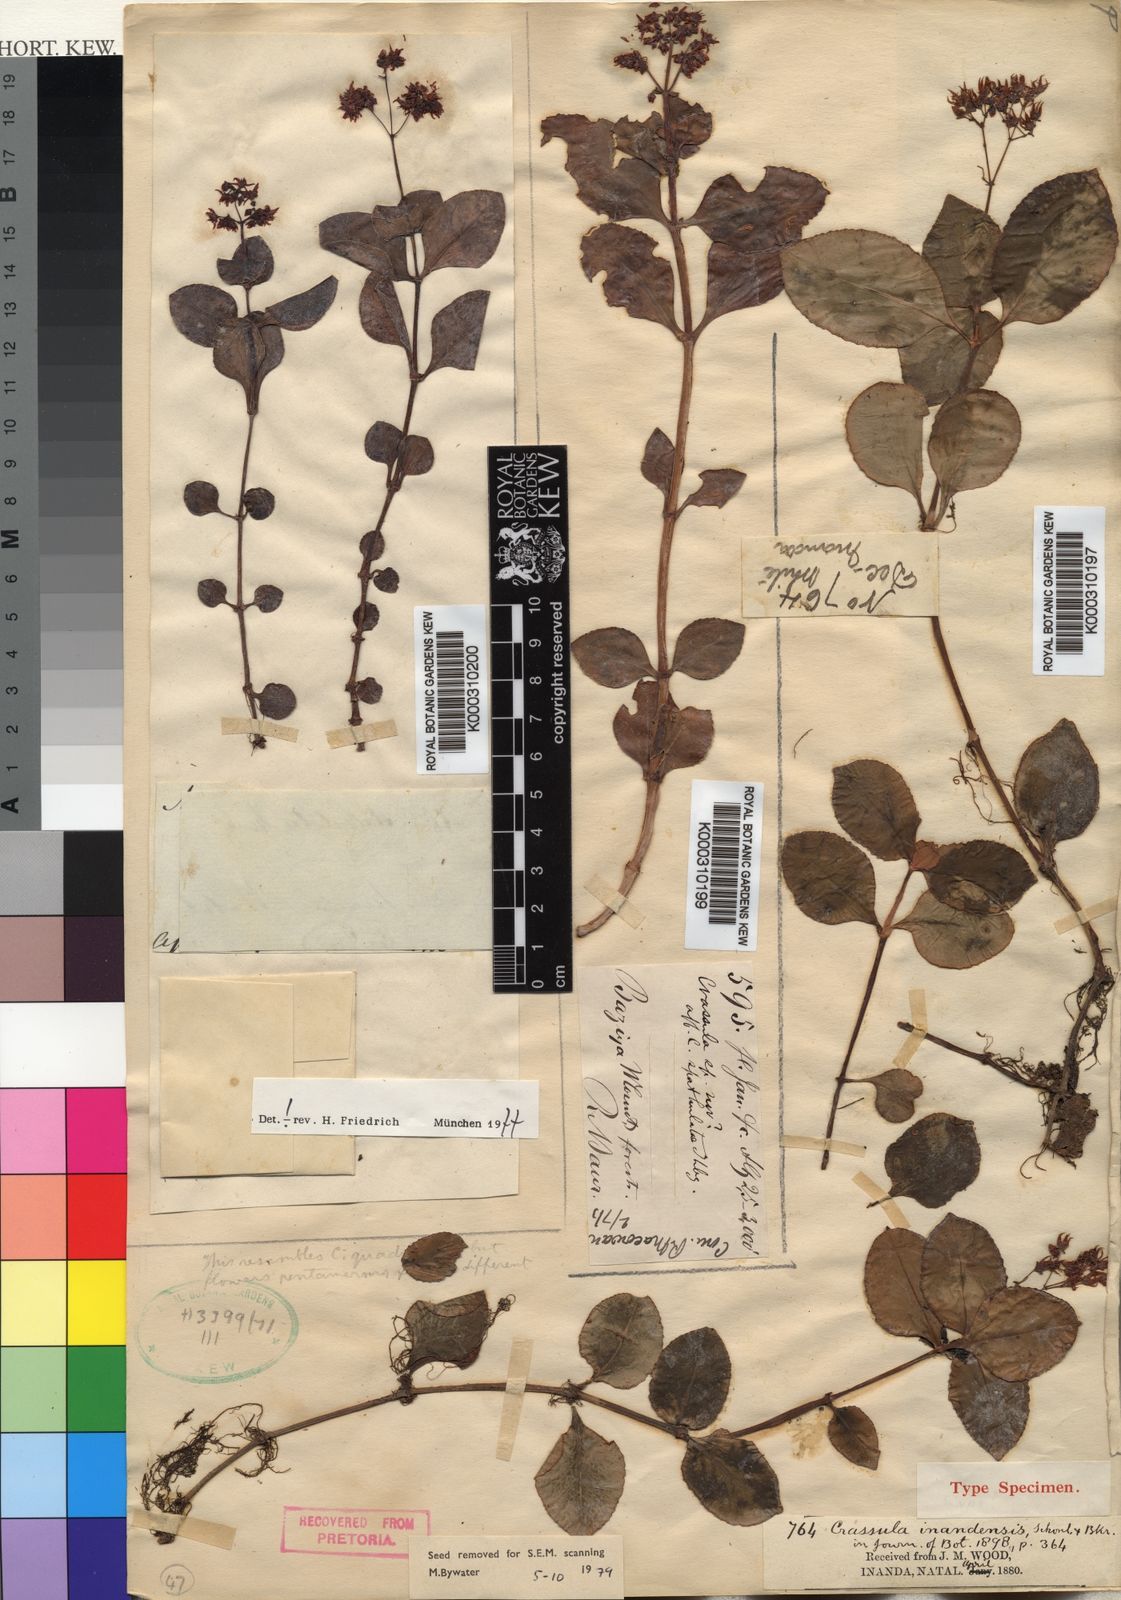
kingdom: Plantae
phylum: Tracheophyta
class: Magnoliopsida
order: Saxifragales
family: Crassulaceae
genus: Crassula
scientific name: Crassula
